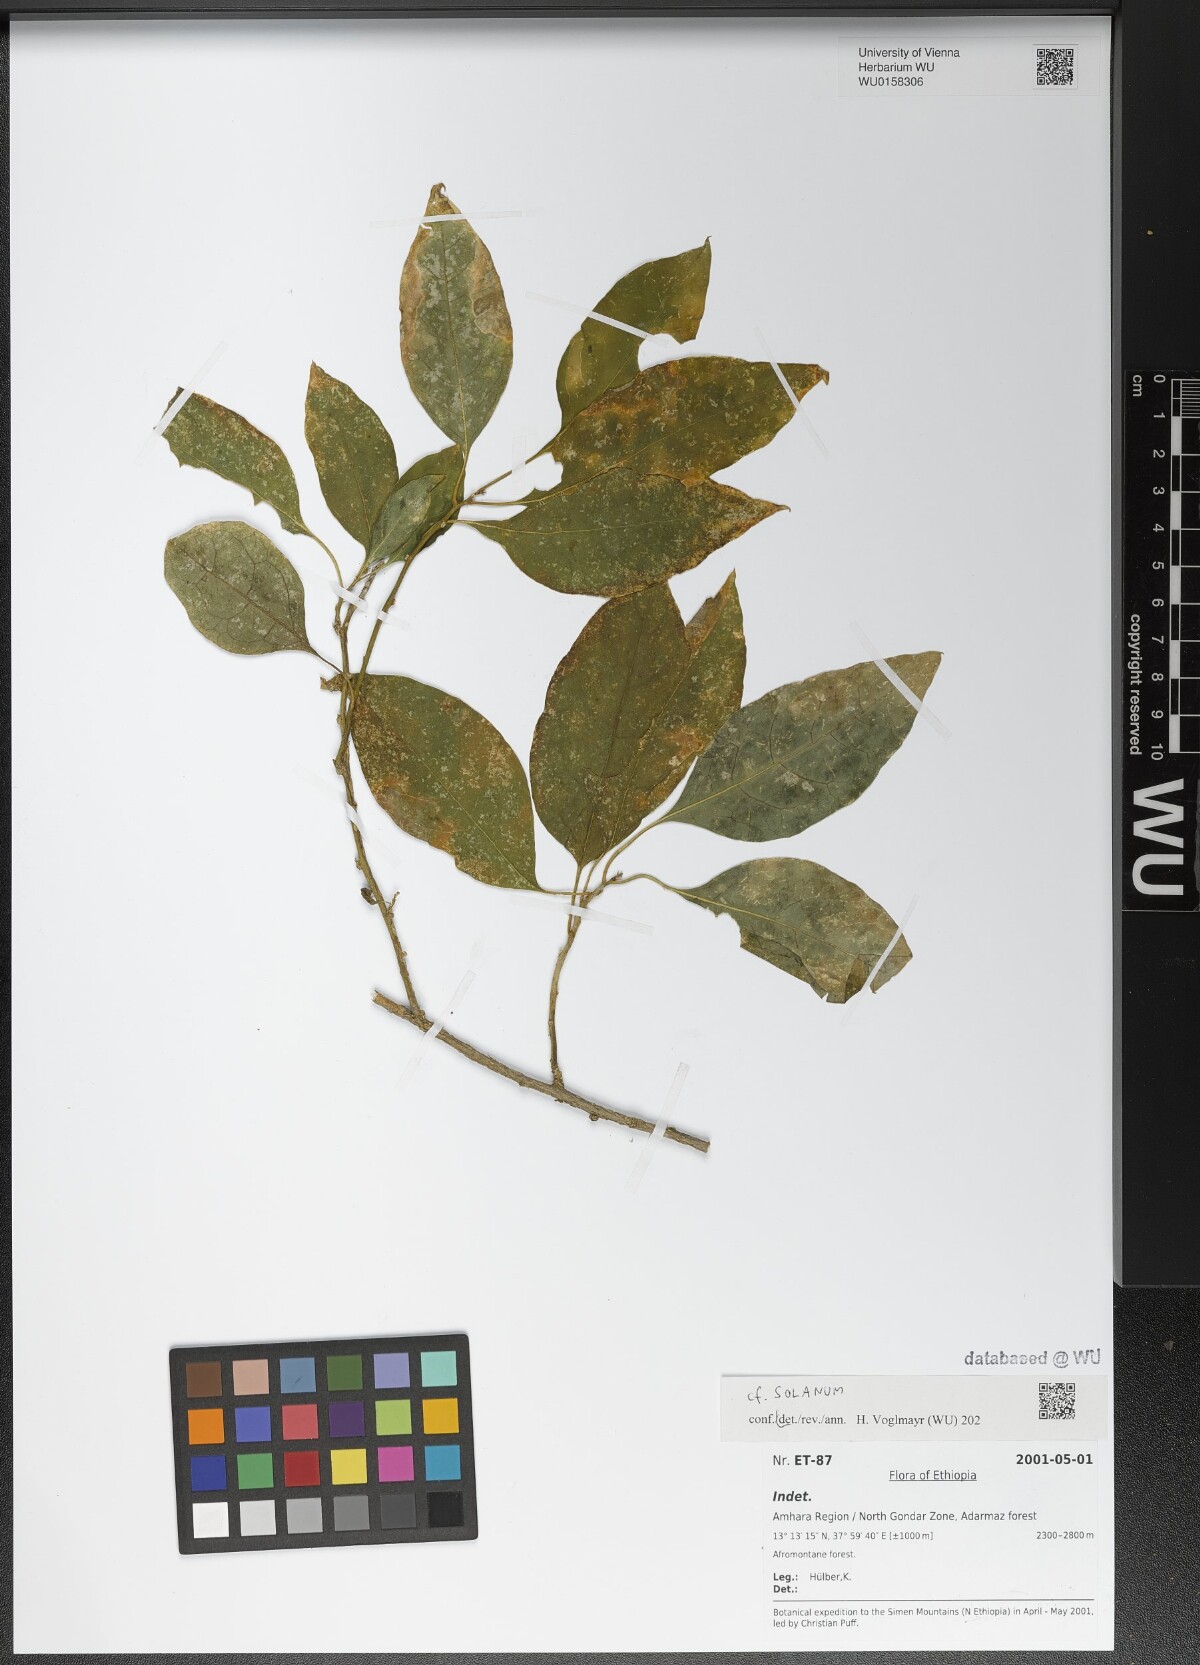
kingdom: Plantae
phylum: Tracheophyta
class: Magnoliopsida
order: Solanales
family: Solanaceae
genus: Solanum
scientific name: Solanum
